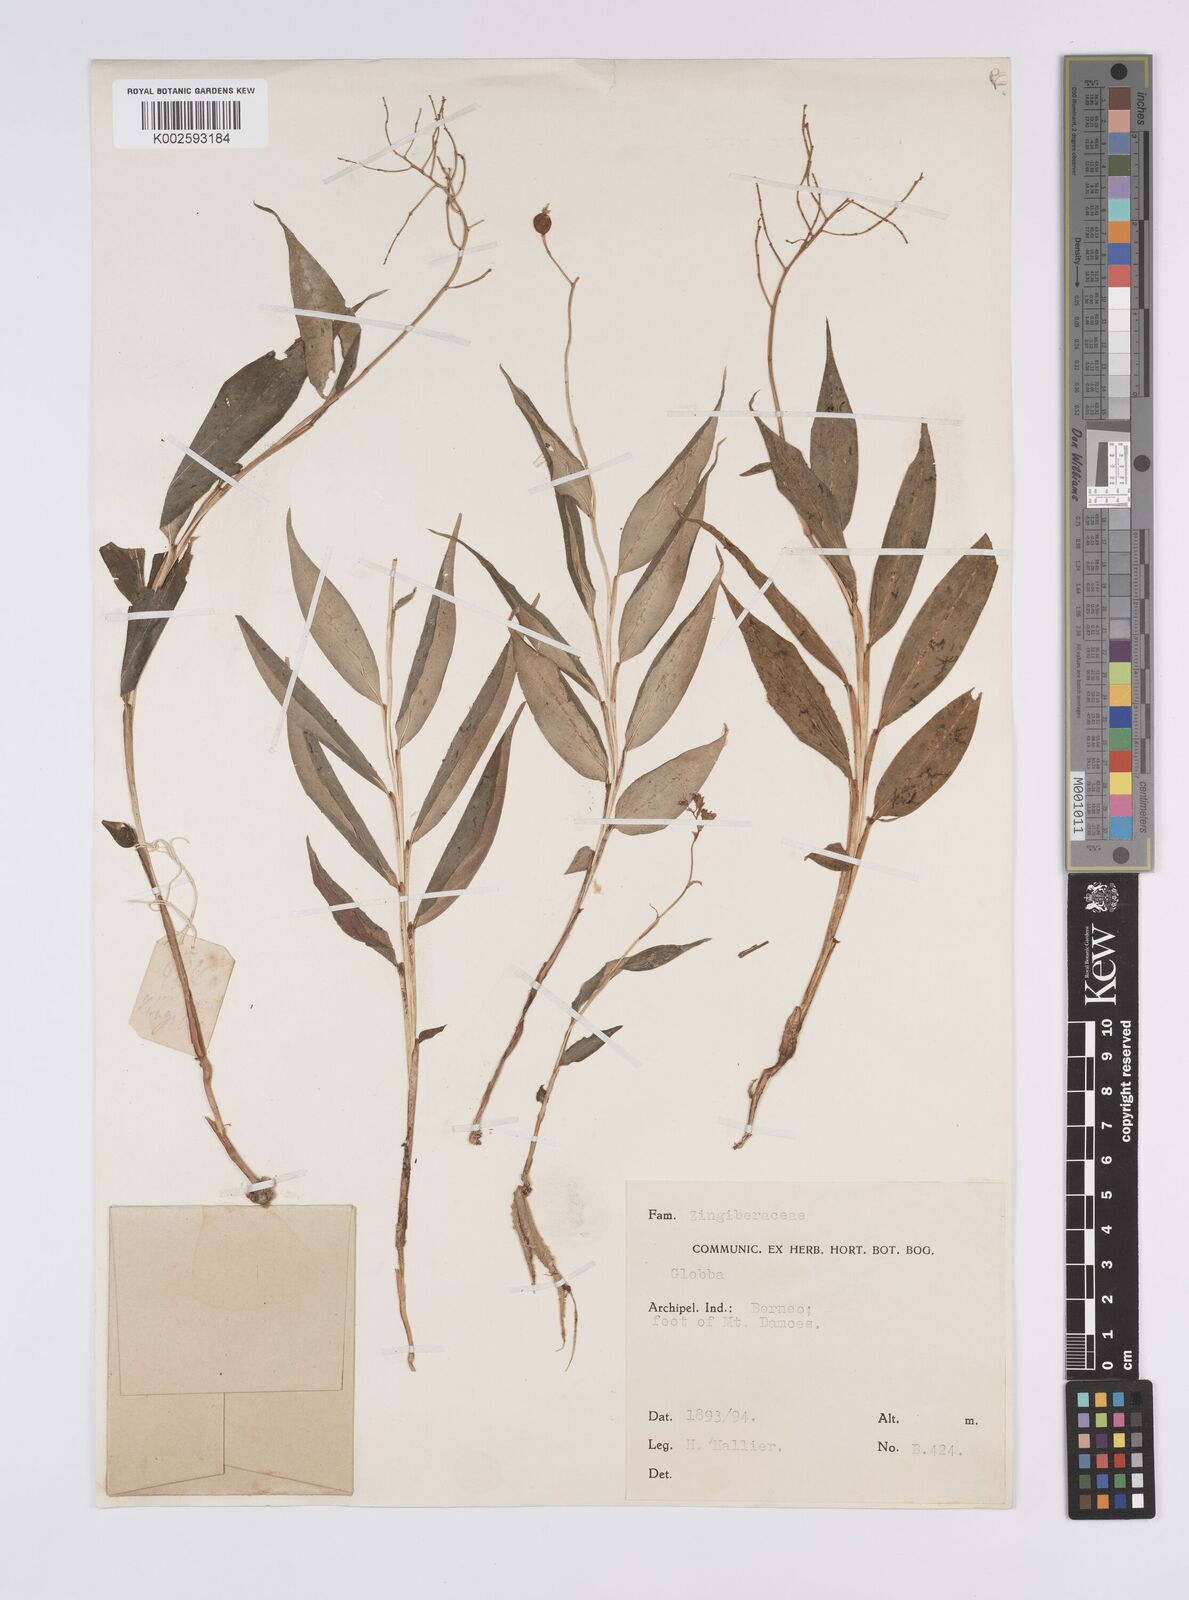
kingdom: Plantae
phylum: Tracheophyta
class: Liliopsida
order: Zingiberales
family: Zingiberaceae
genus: Globba
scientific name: Globba
